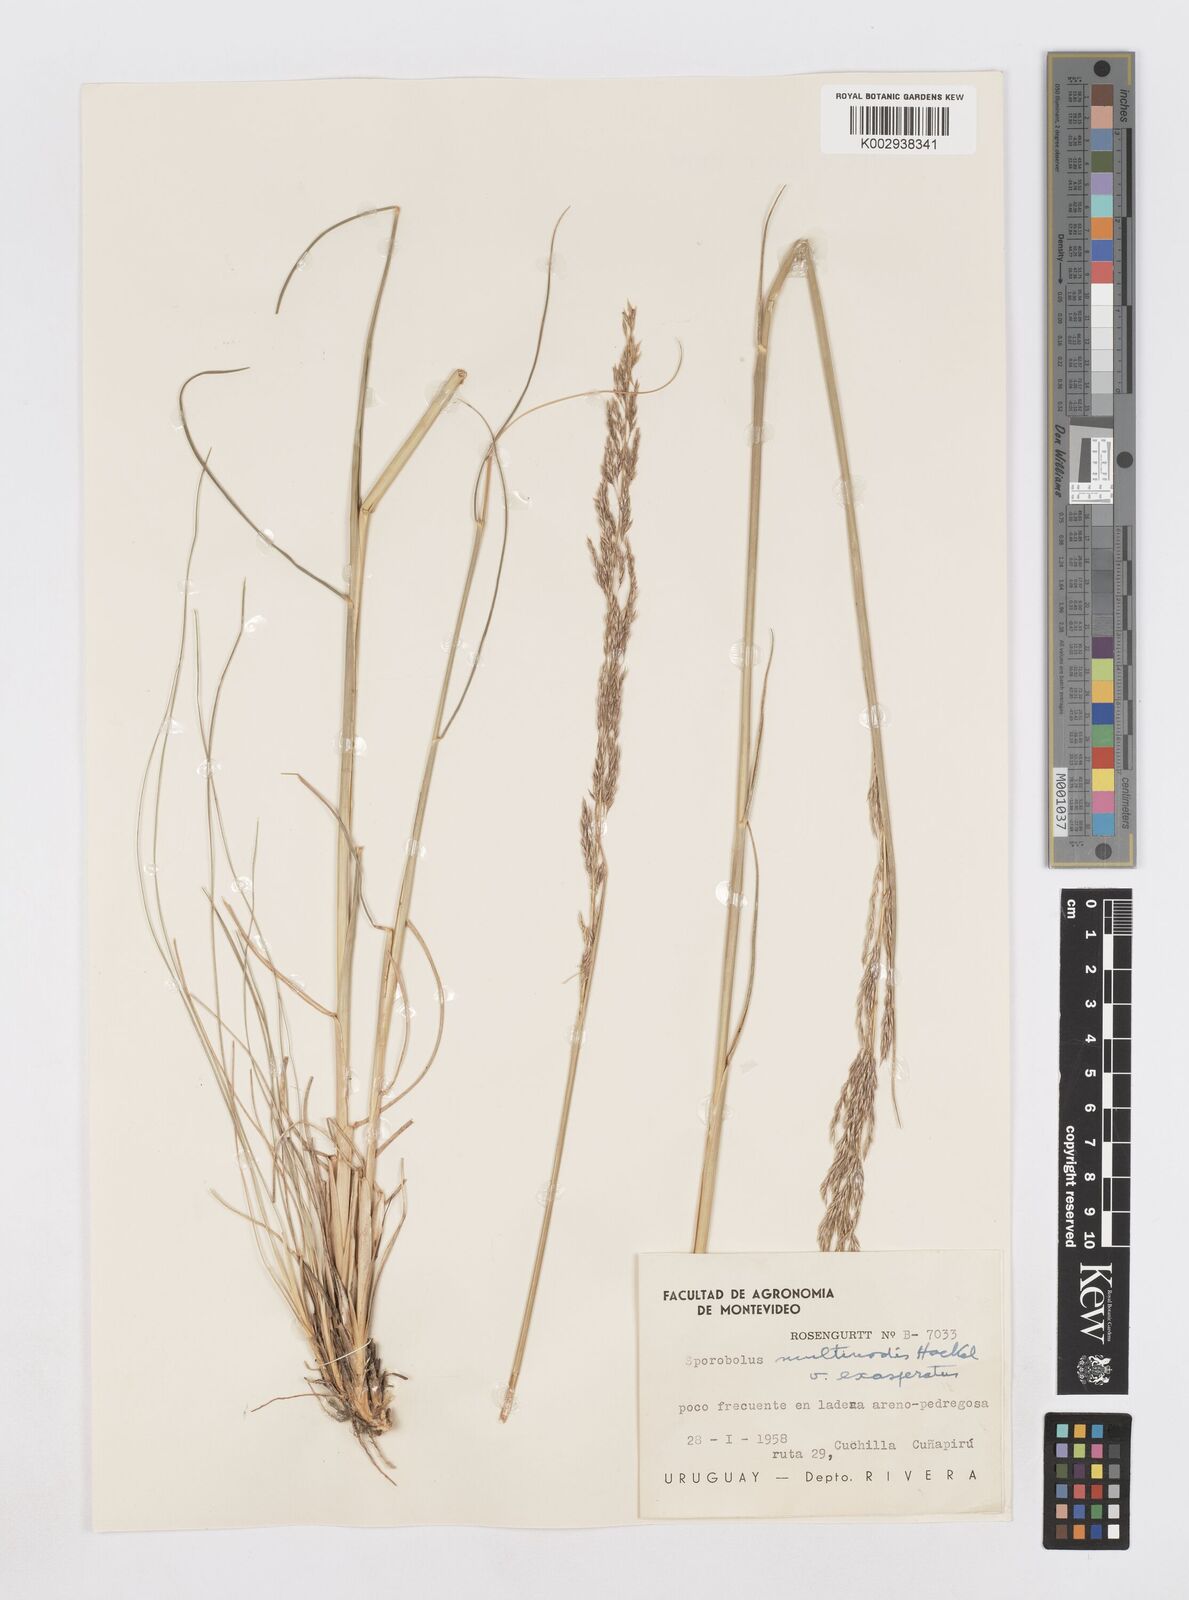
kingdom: Plantae
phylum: Tracheophyta
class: Liliopsida
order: Poales
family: Poaceae
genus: Sporobolus
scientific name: Sporobolus multinodis
